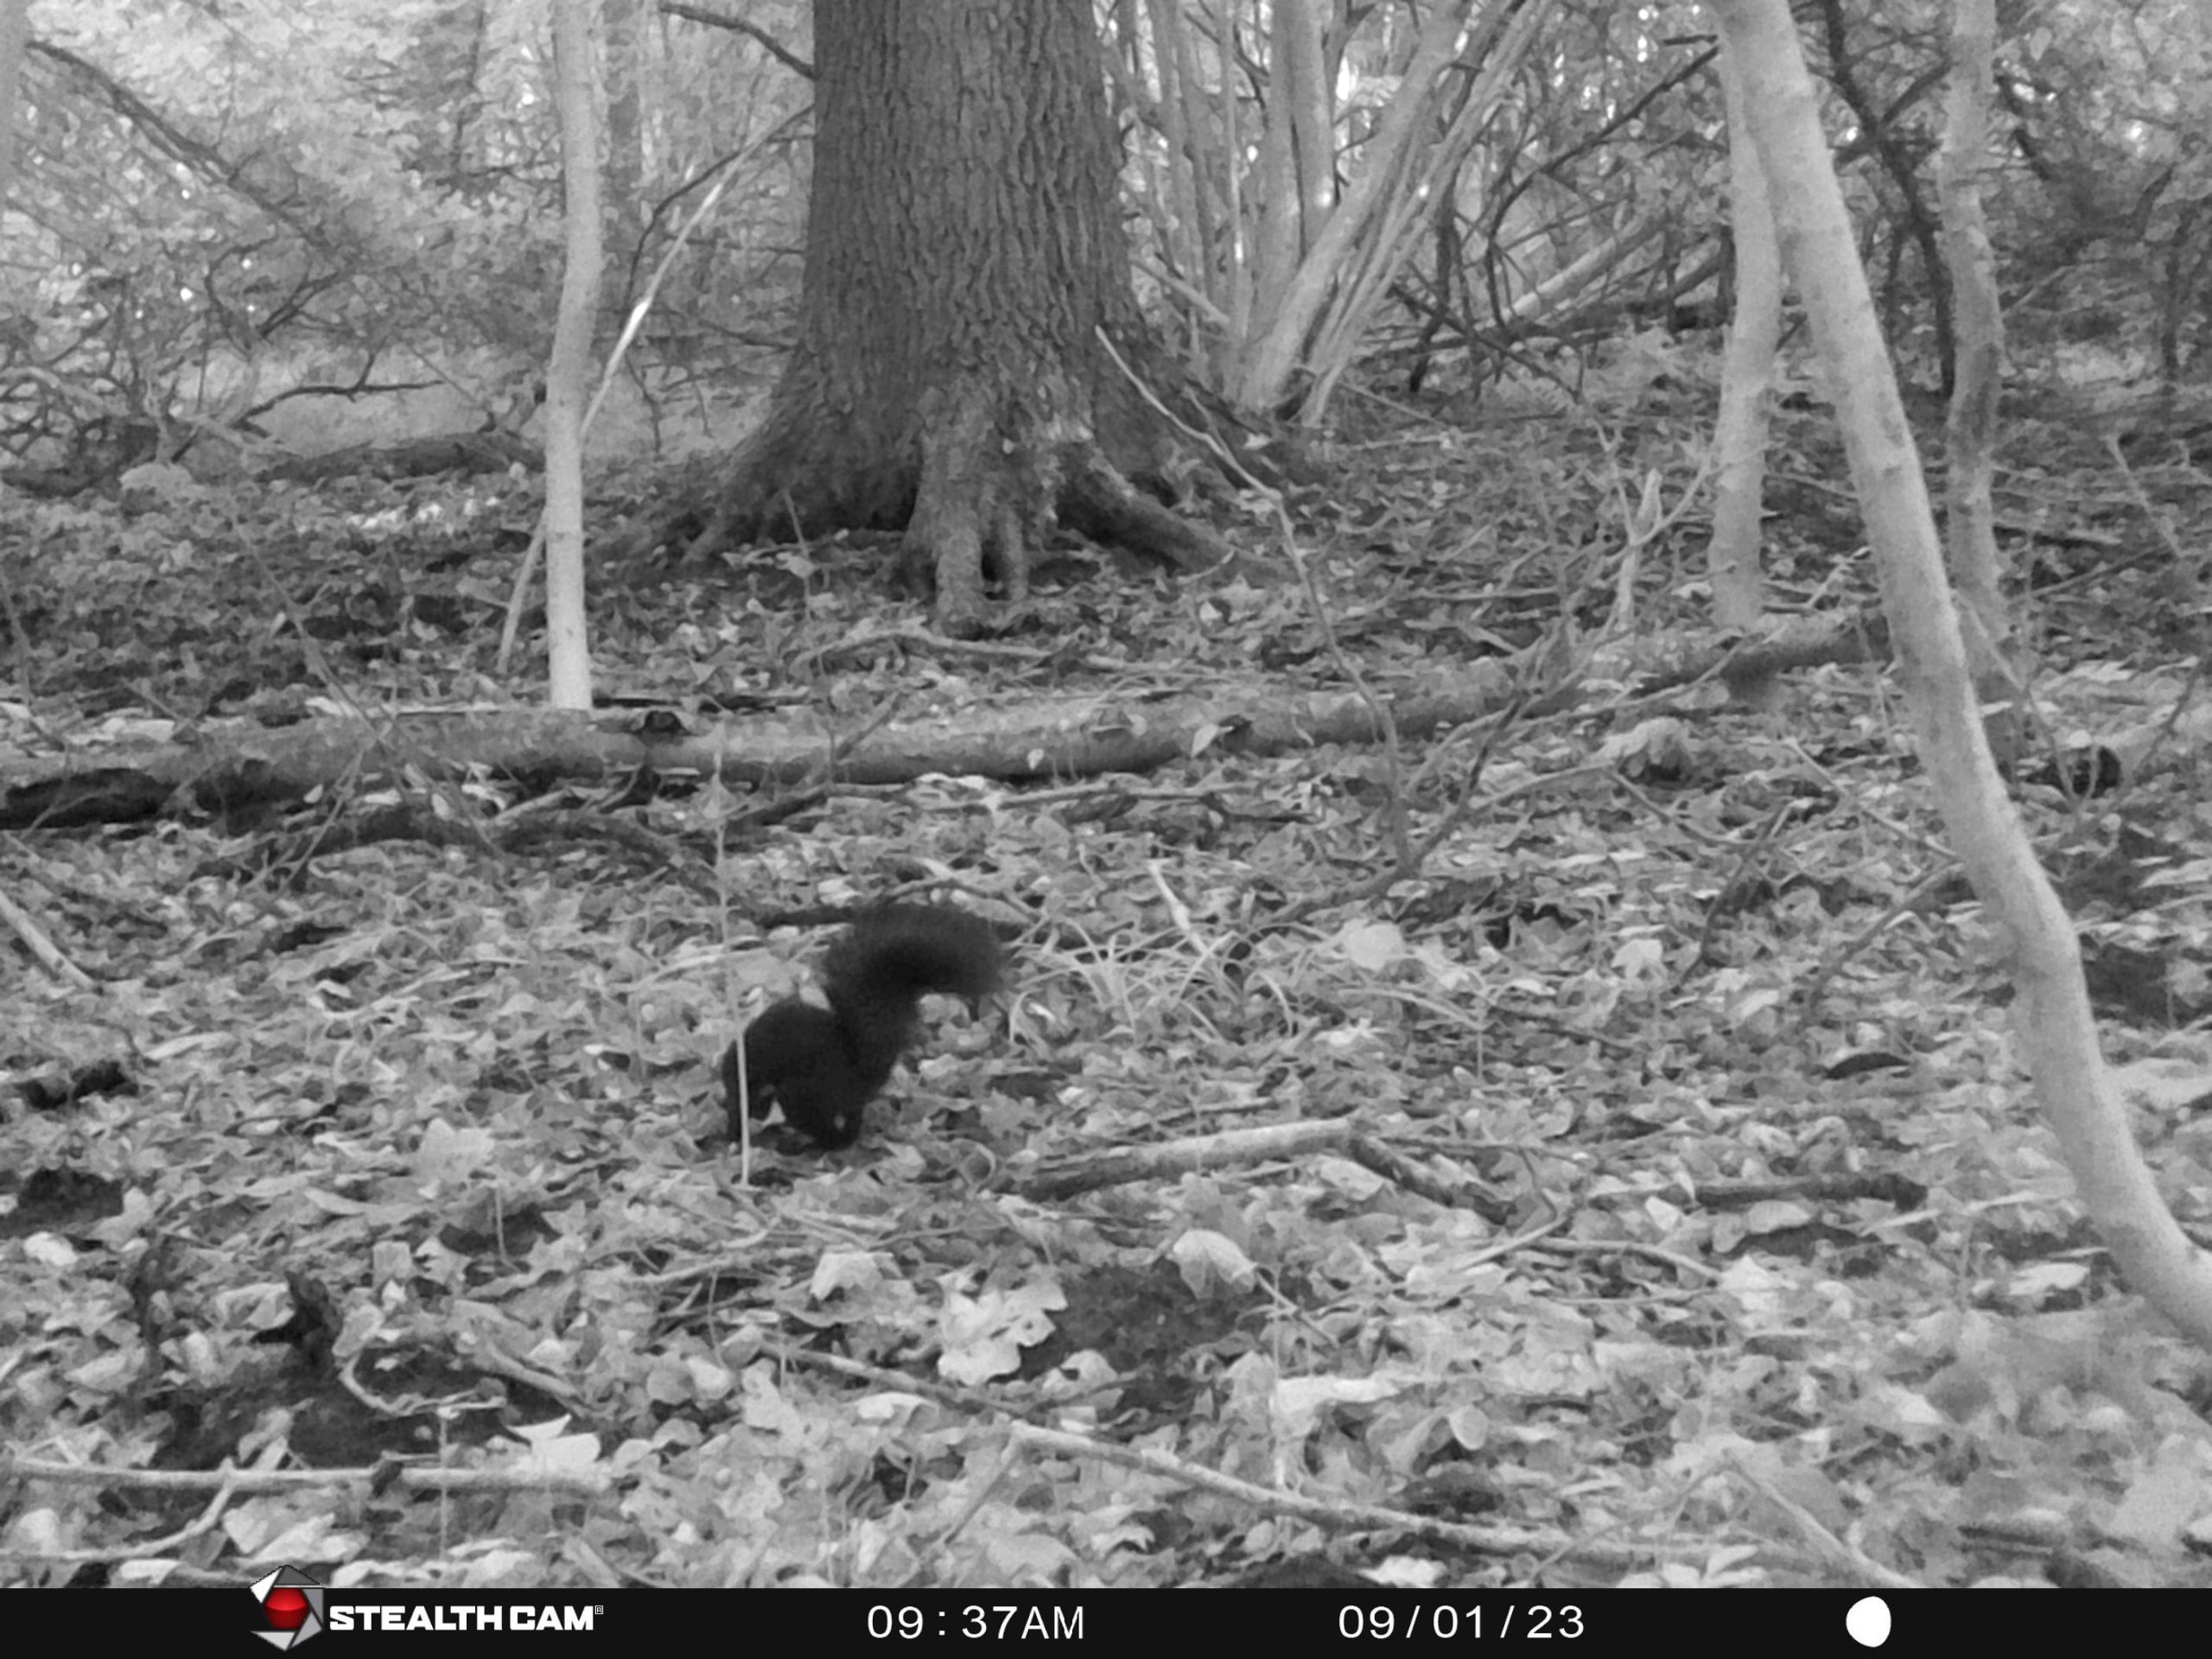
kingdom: Animalia
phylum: Chordata
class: Mammalia
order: Rodentia
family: Sciuridae
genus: Sciurus
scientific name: Sciurus vulgaris
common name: Egern
